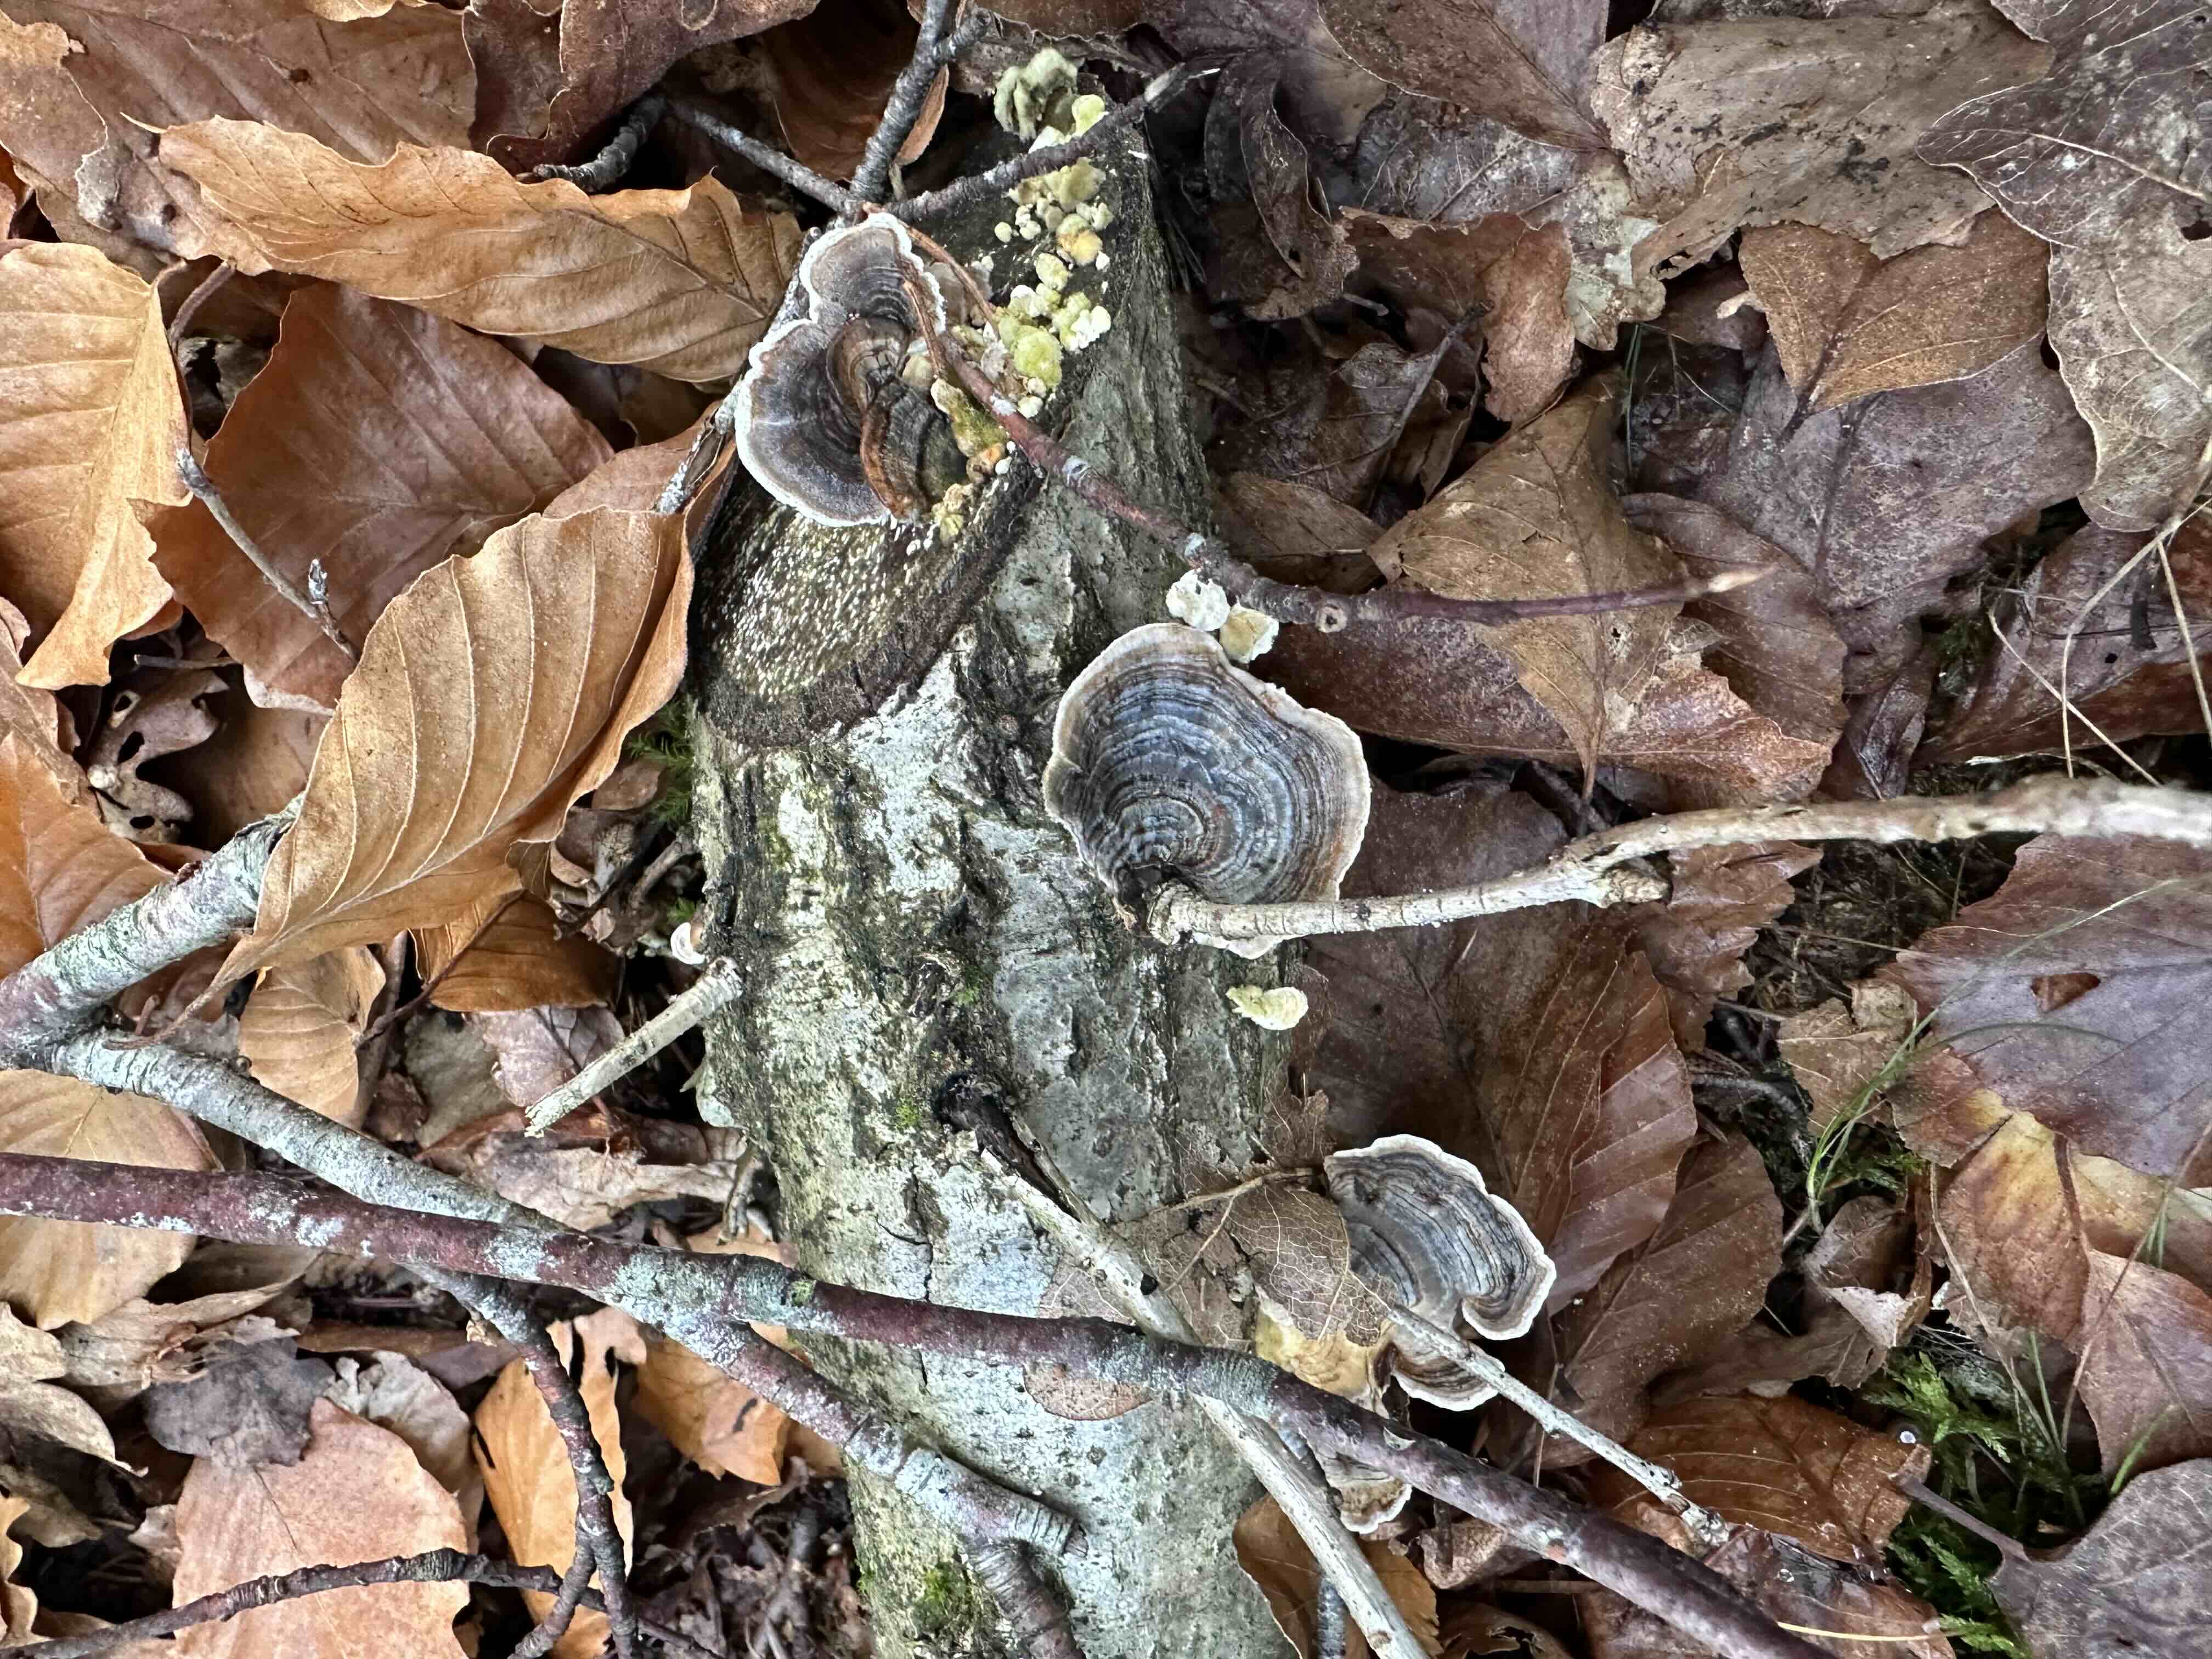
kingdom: Fungi
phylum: Basidiomycota
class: Agaricomycetes
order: Polyporales
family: Polyporaceae
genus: Trametes
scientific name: Trametes versicolor
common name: broget læderporesvamp
